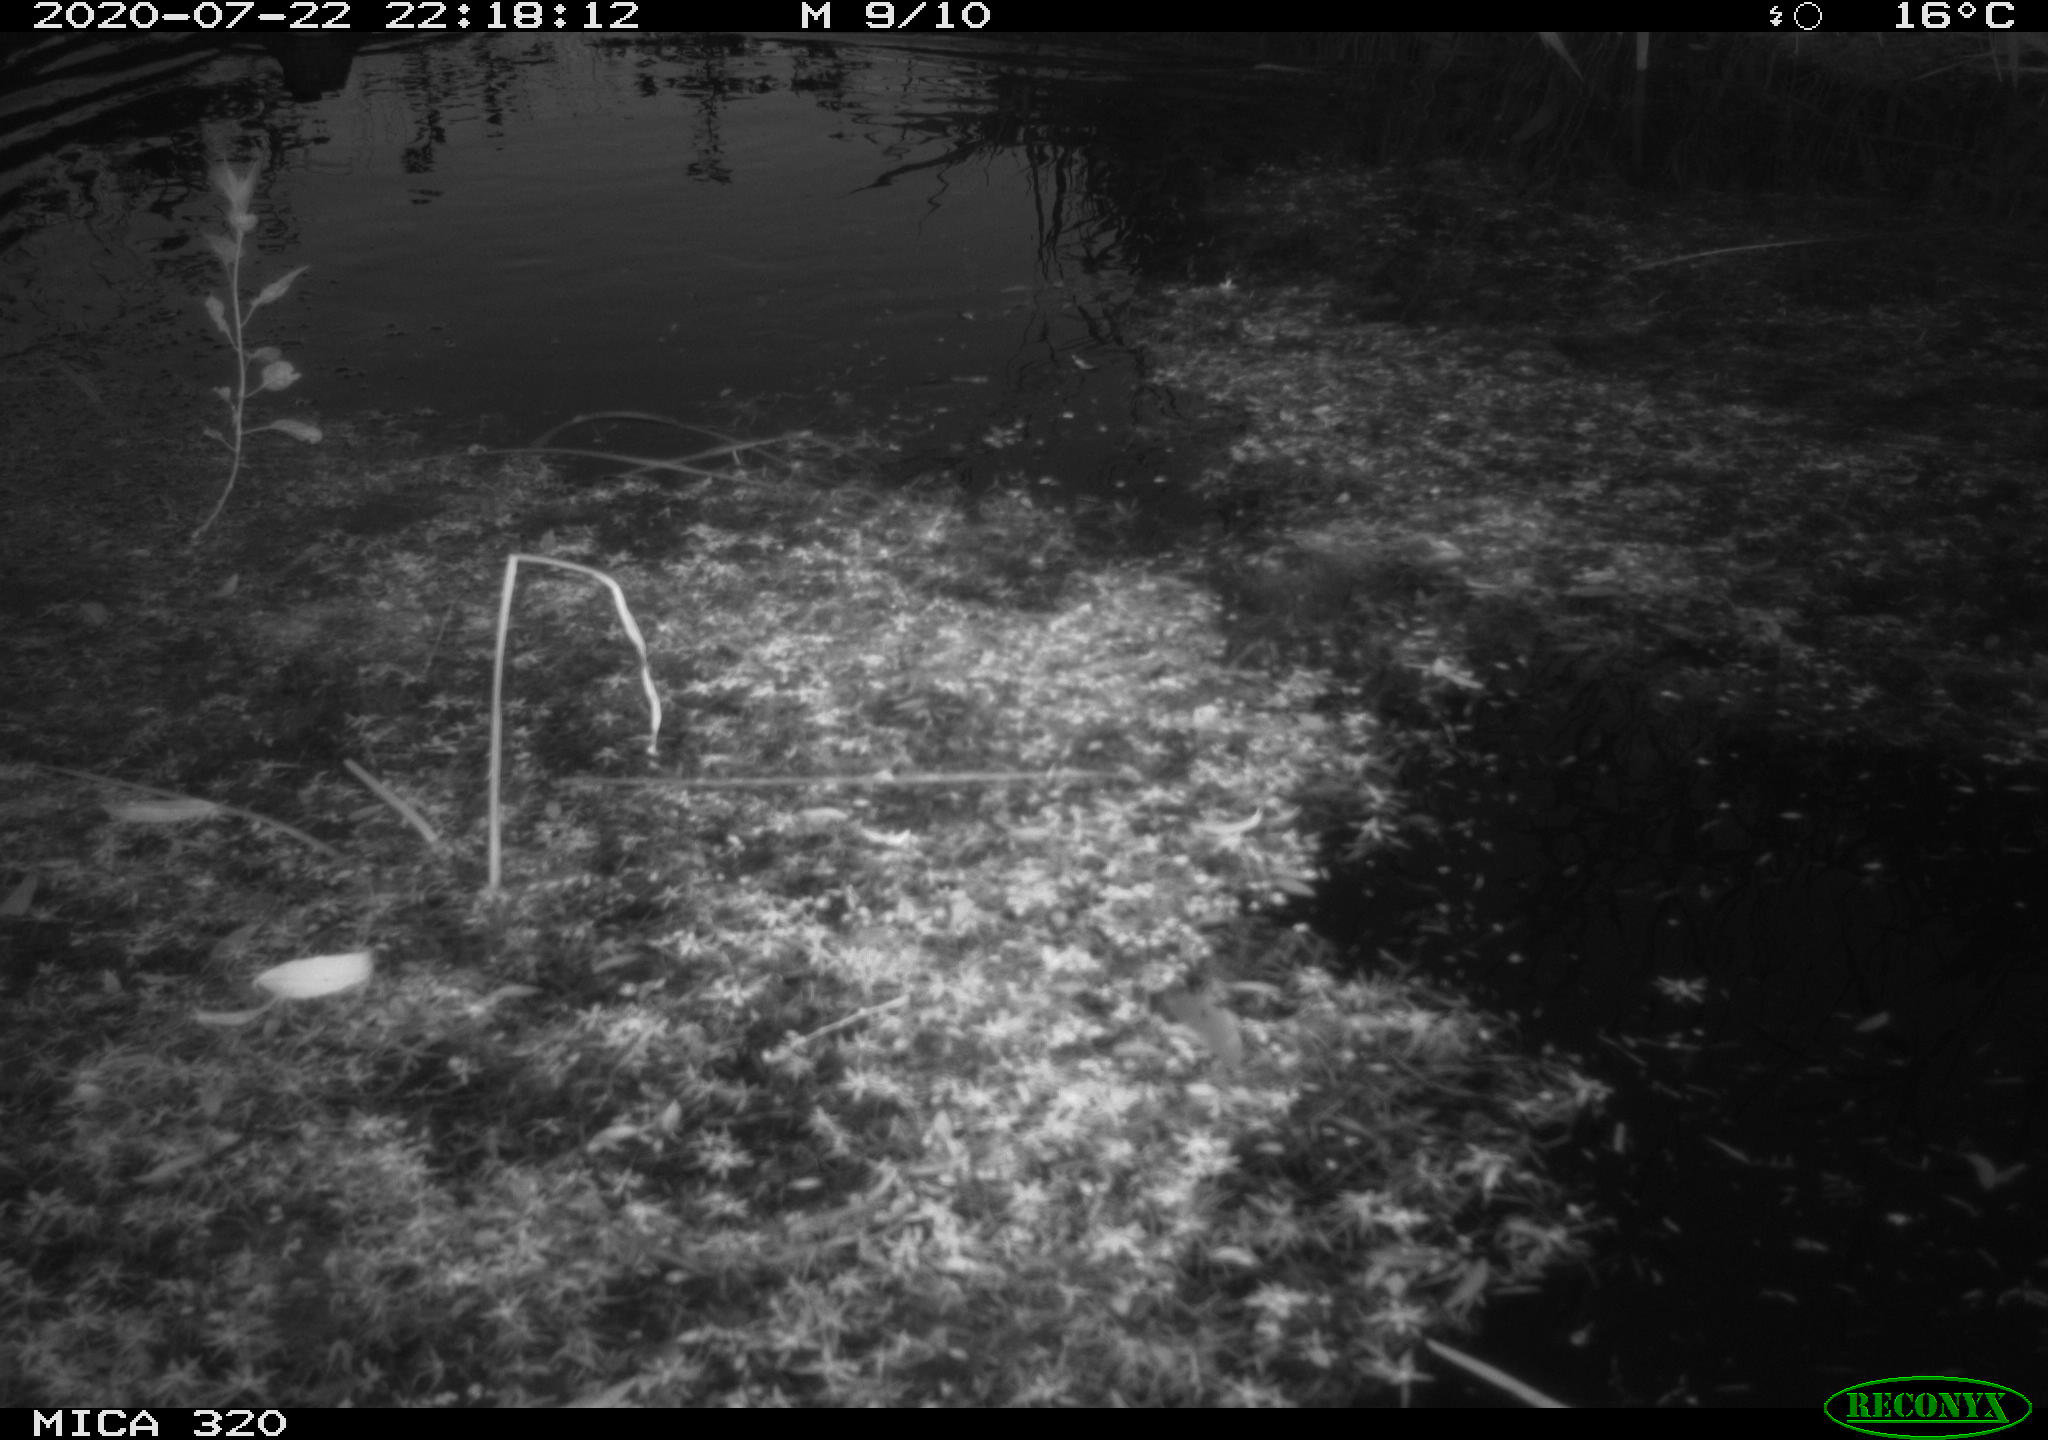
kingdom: Animalia
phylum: Chordata
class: Aves
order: Anseriformes
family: Anatidae
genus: Anas
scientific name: Anas platyrhynchos
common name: Mallard
